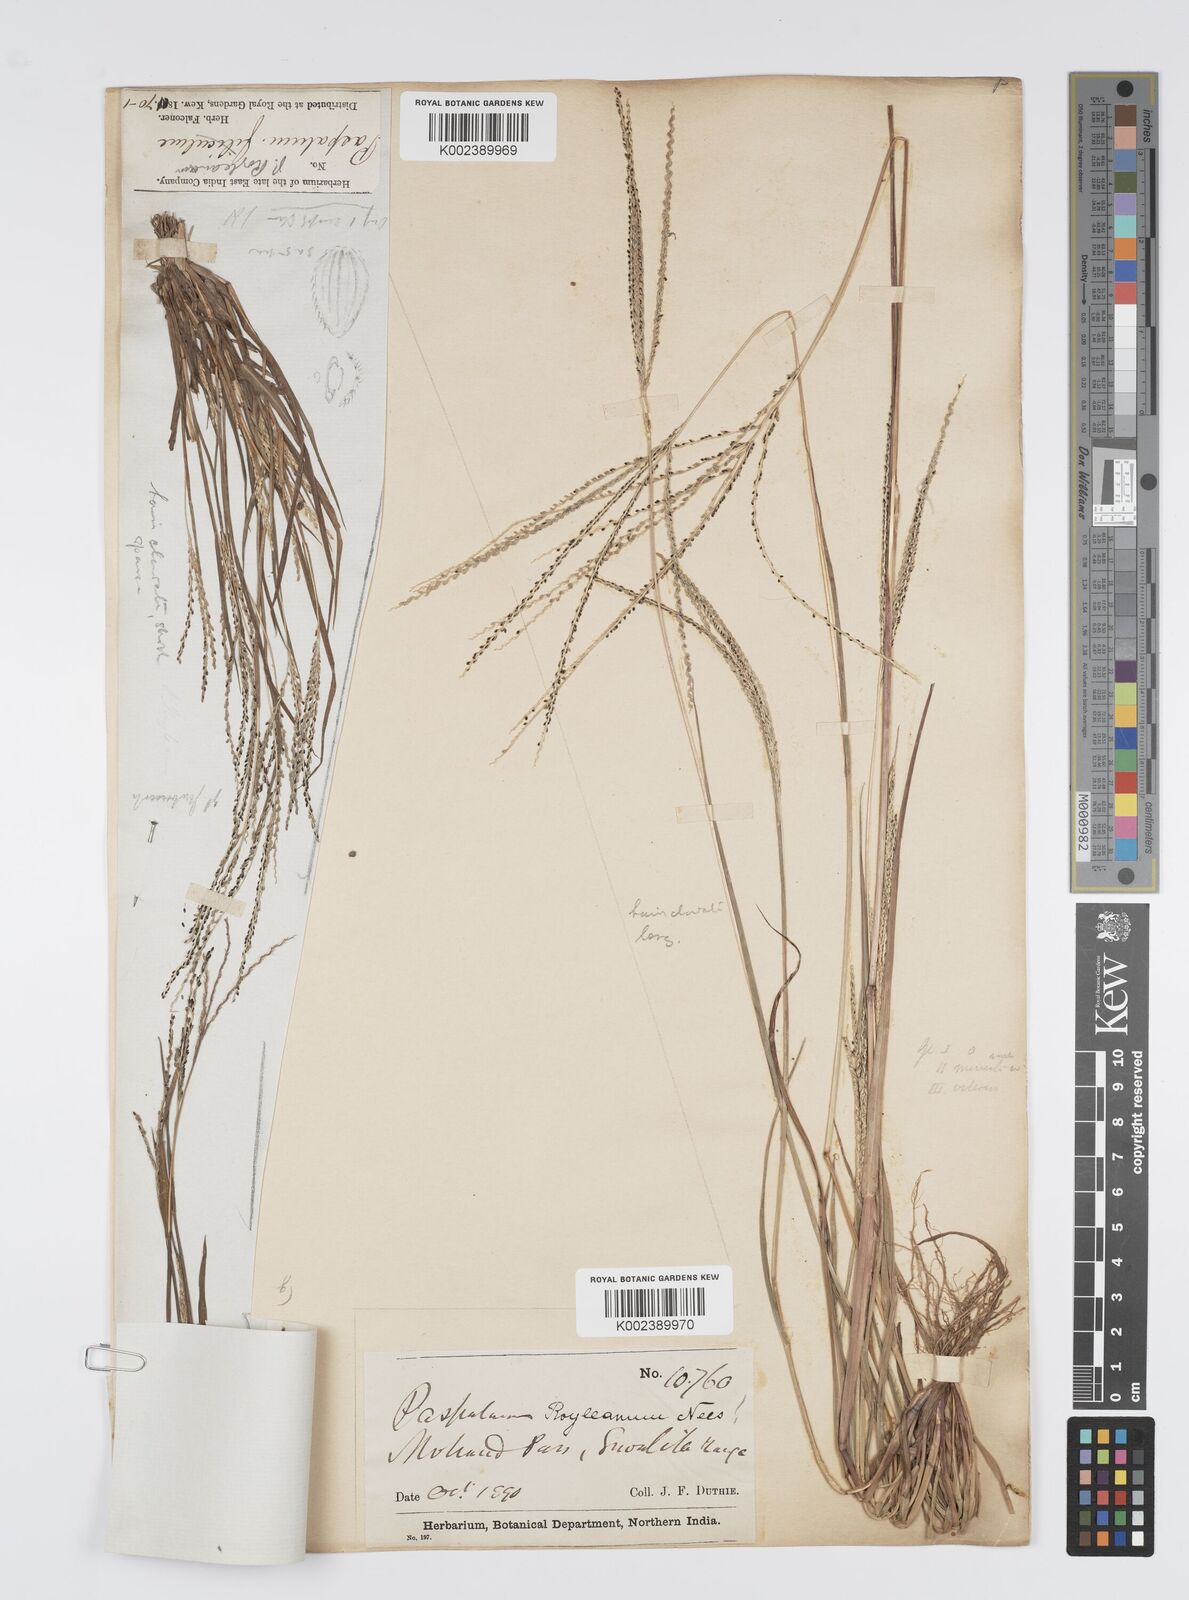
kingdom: Plantae
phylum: Tracheophyta
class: Liliopsida
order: Poales
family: Poaceae
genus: Digitaria
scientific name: Digitaria stricta
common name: Crabgrass
